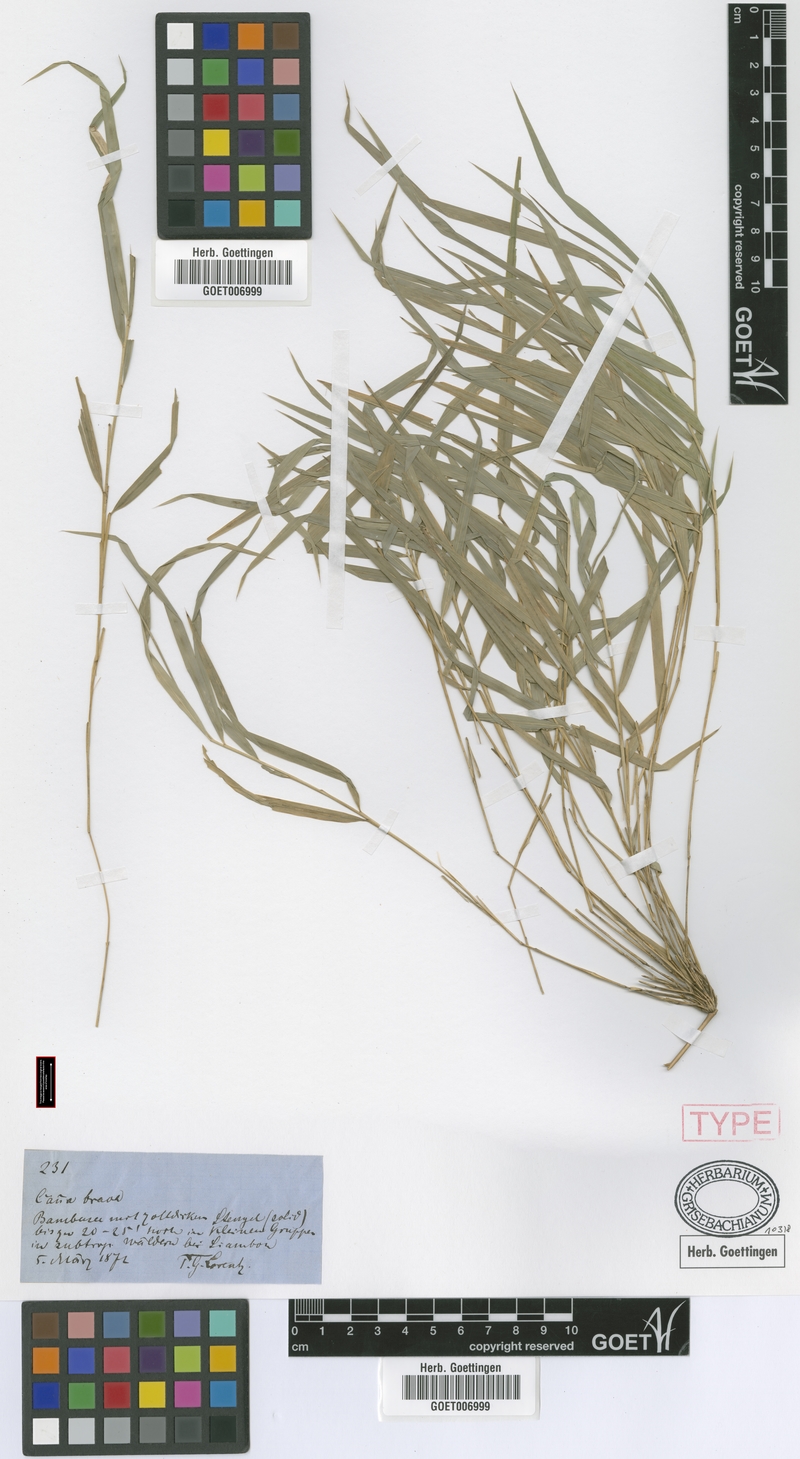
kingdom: Plantae
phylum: Tracheophyta
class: Liliopsida
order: Poales
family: Poaceae
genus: Chusquea
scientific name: Chusquea lorentziana
